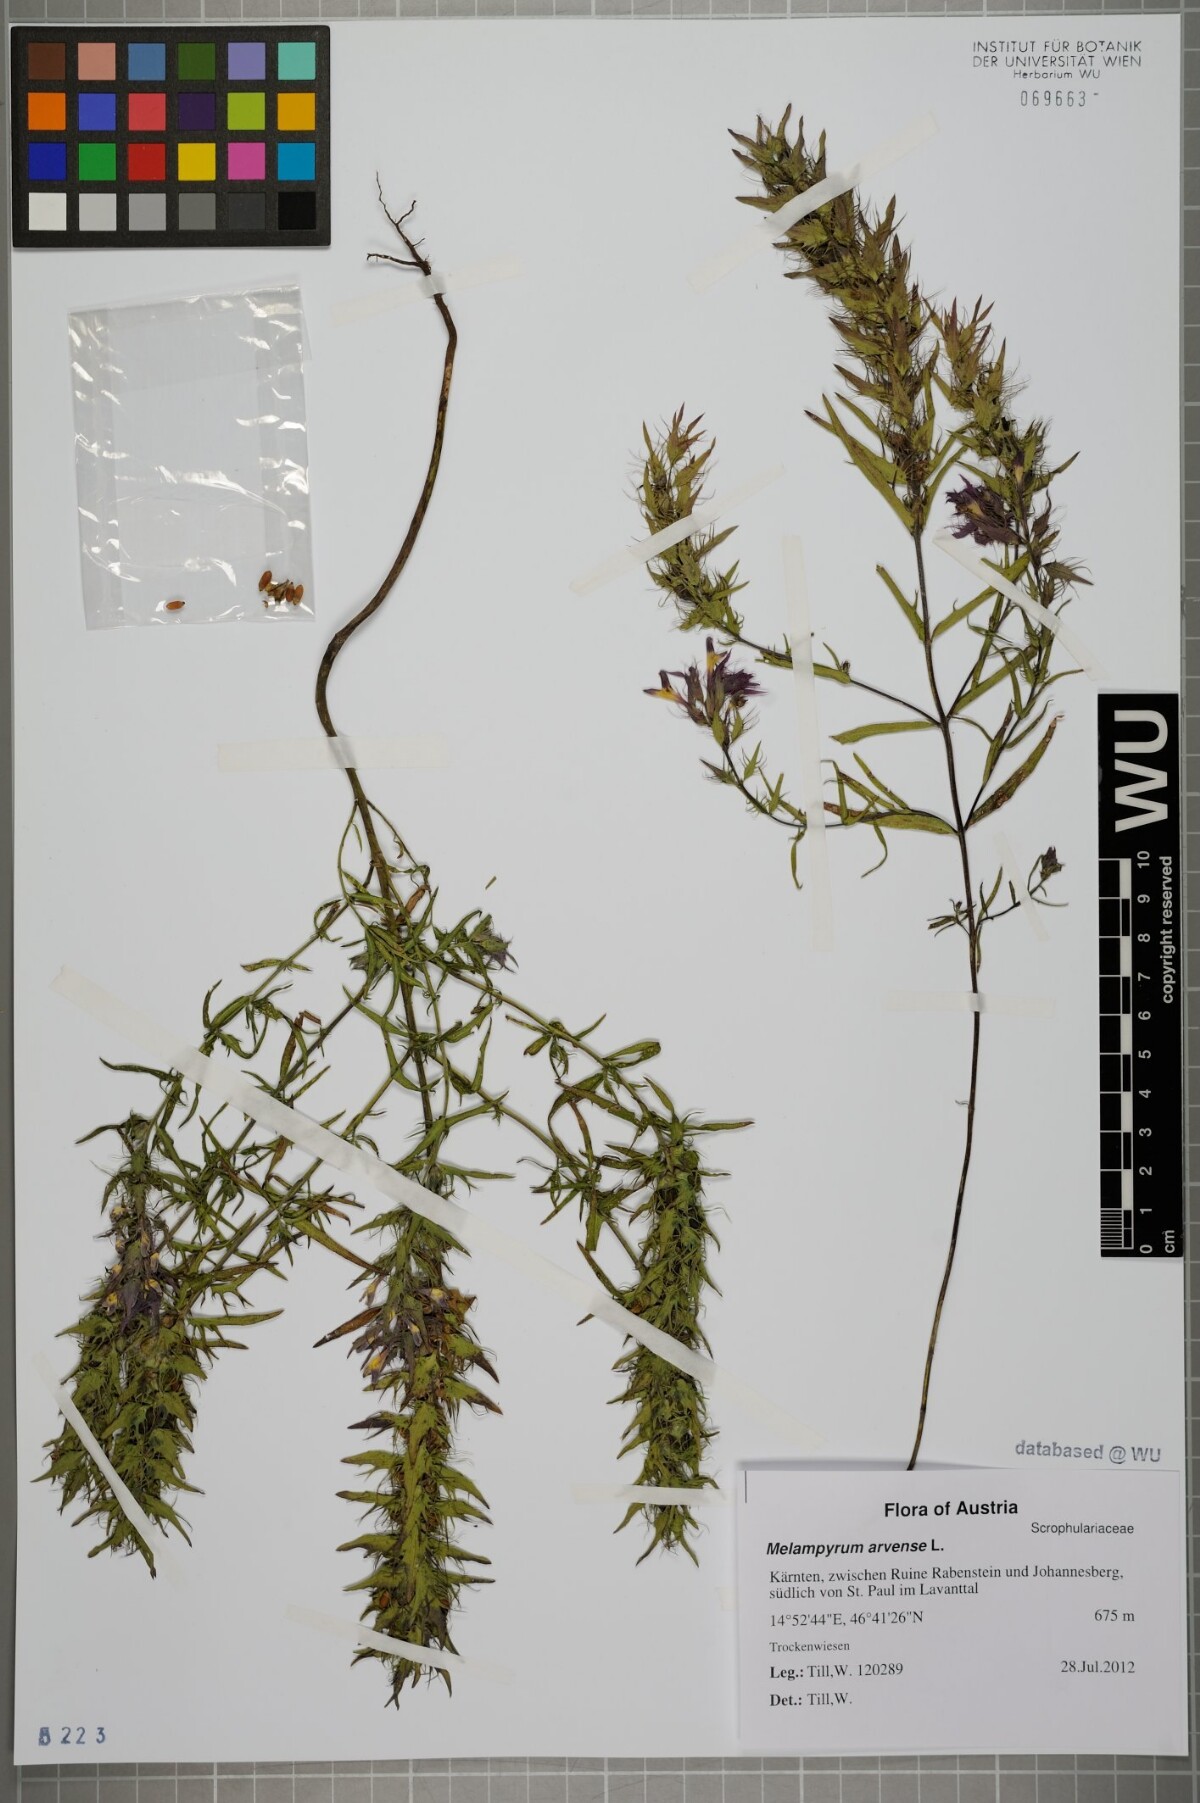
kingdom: Plantae
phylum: Tracheophyta
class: Magnoliopsida
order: Lamiales
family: Orobanchaceae
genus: Melampyrum
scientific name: Melampyrum arvense
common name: Field cow-wheat
